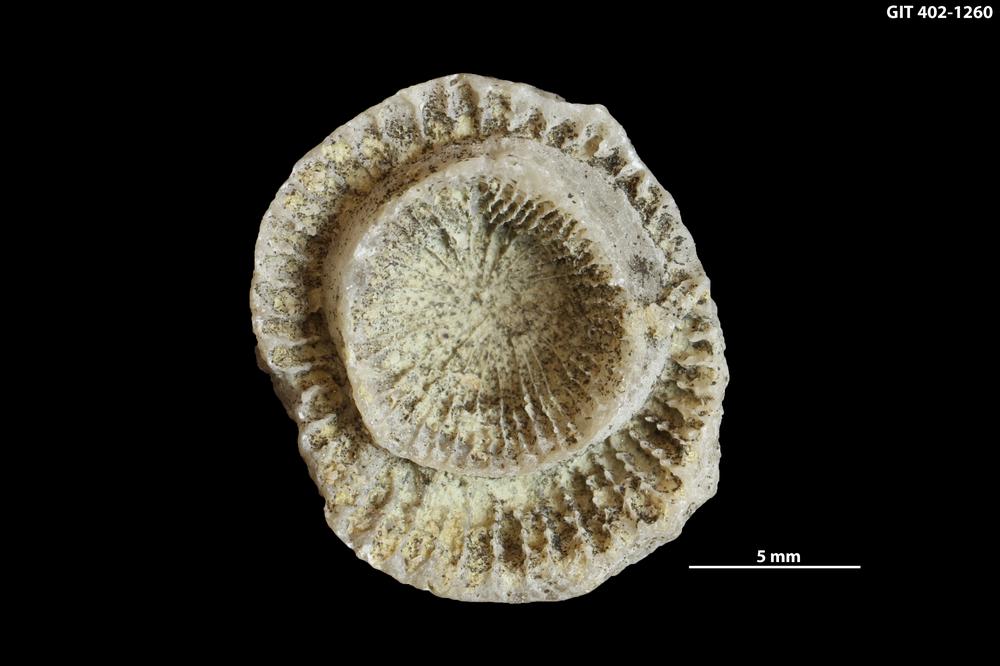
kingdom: Animalia
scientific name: Animalia
